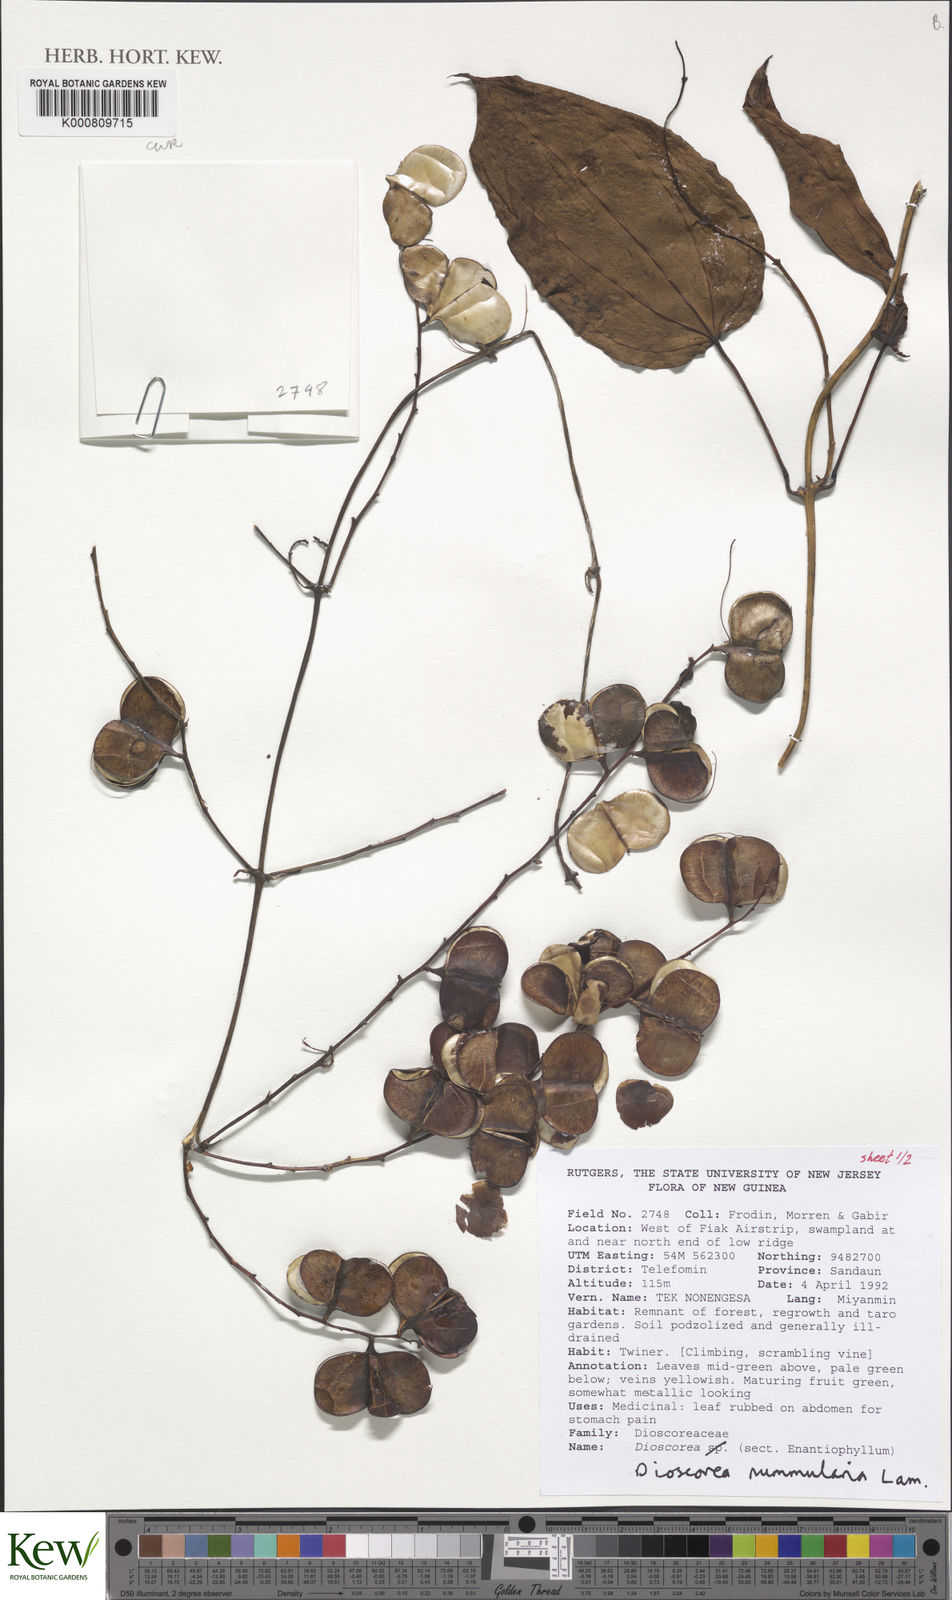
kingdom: Plantae
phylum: Tracheophyta
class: Liliopsida
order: Dioscoreales
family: Dioscoreaceae
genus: Dioscorea
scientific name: Dioscorea nummularia
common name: Pacific yam
